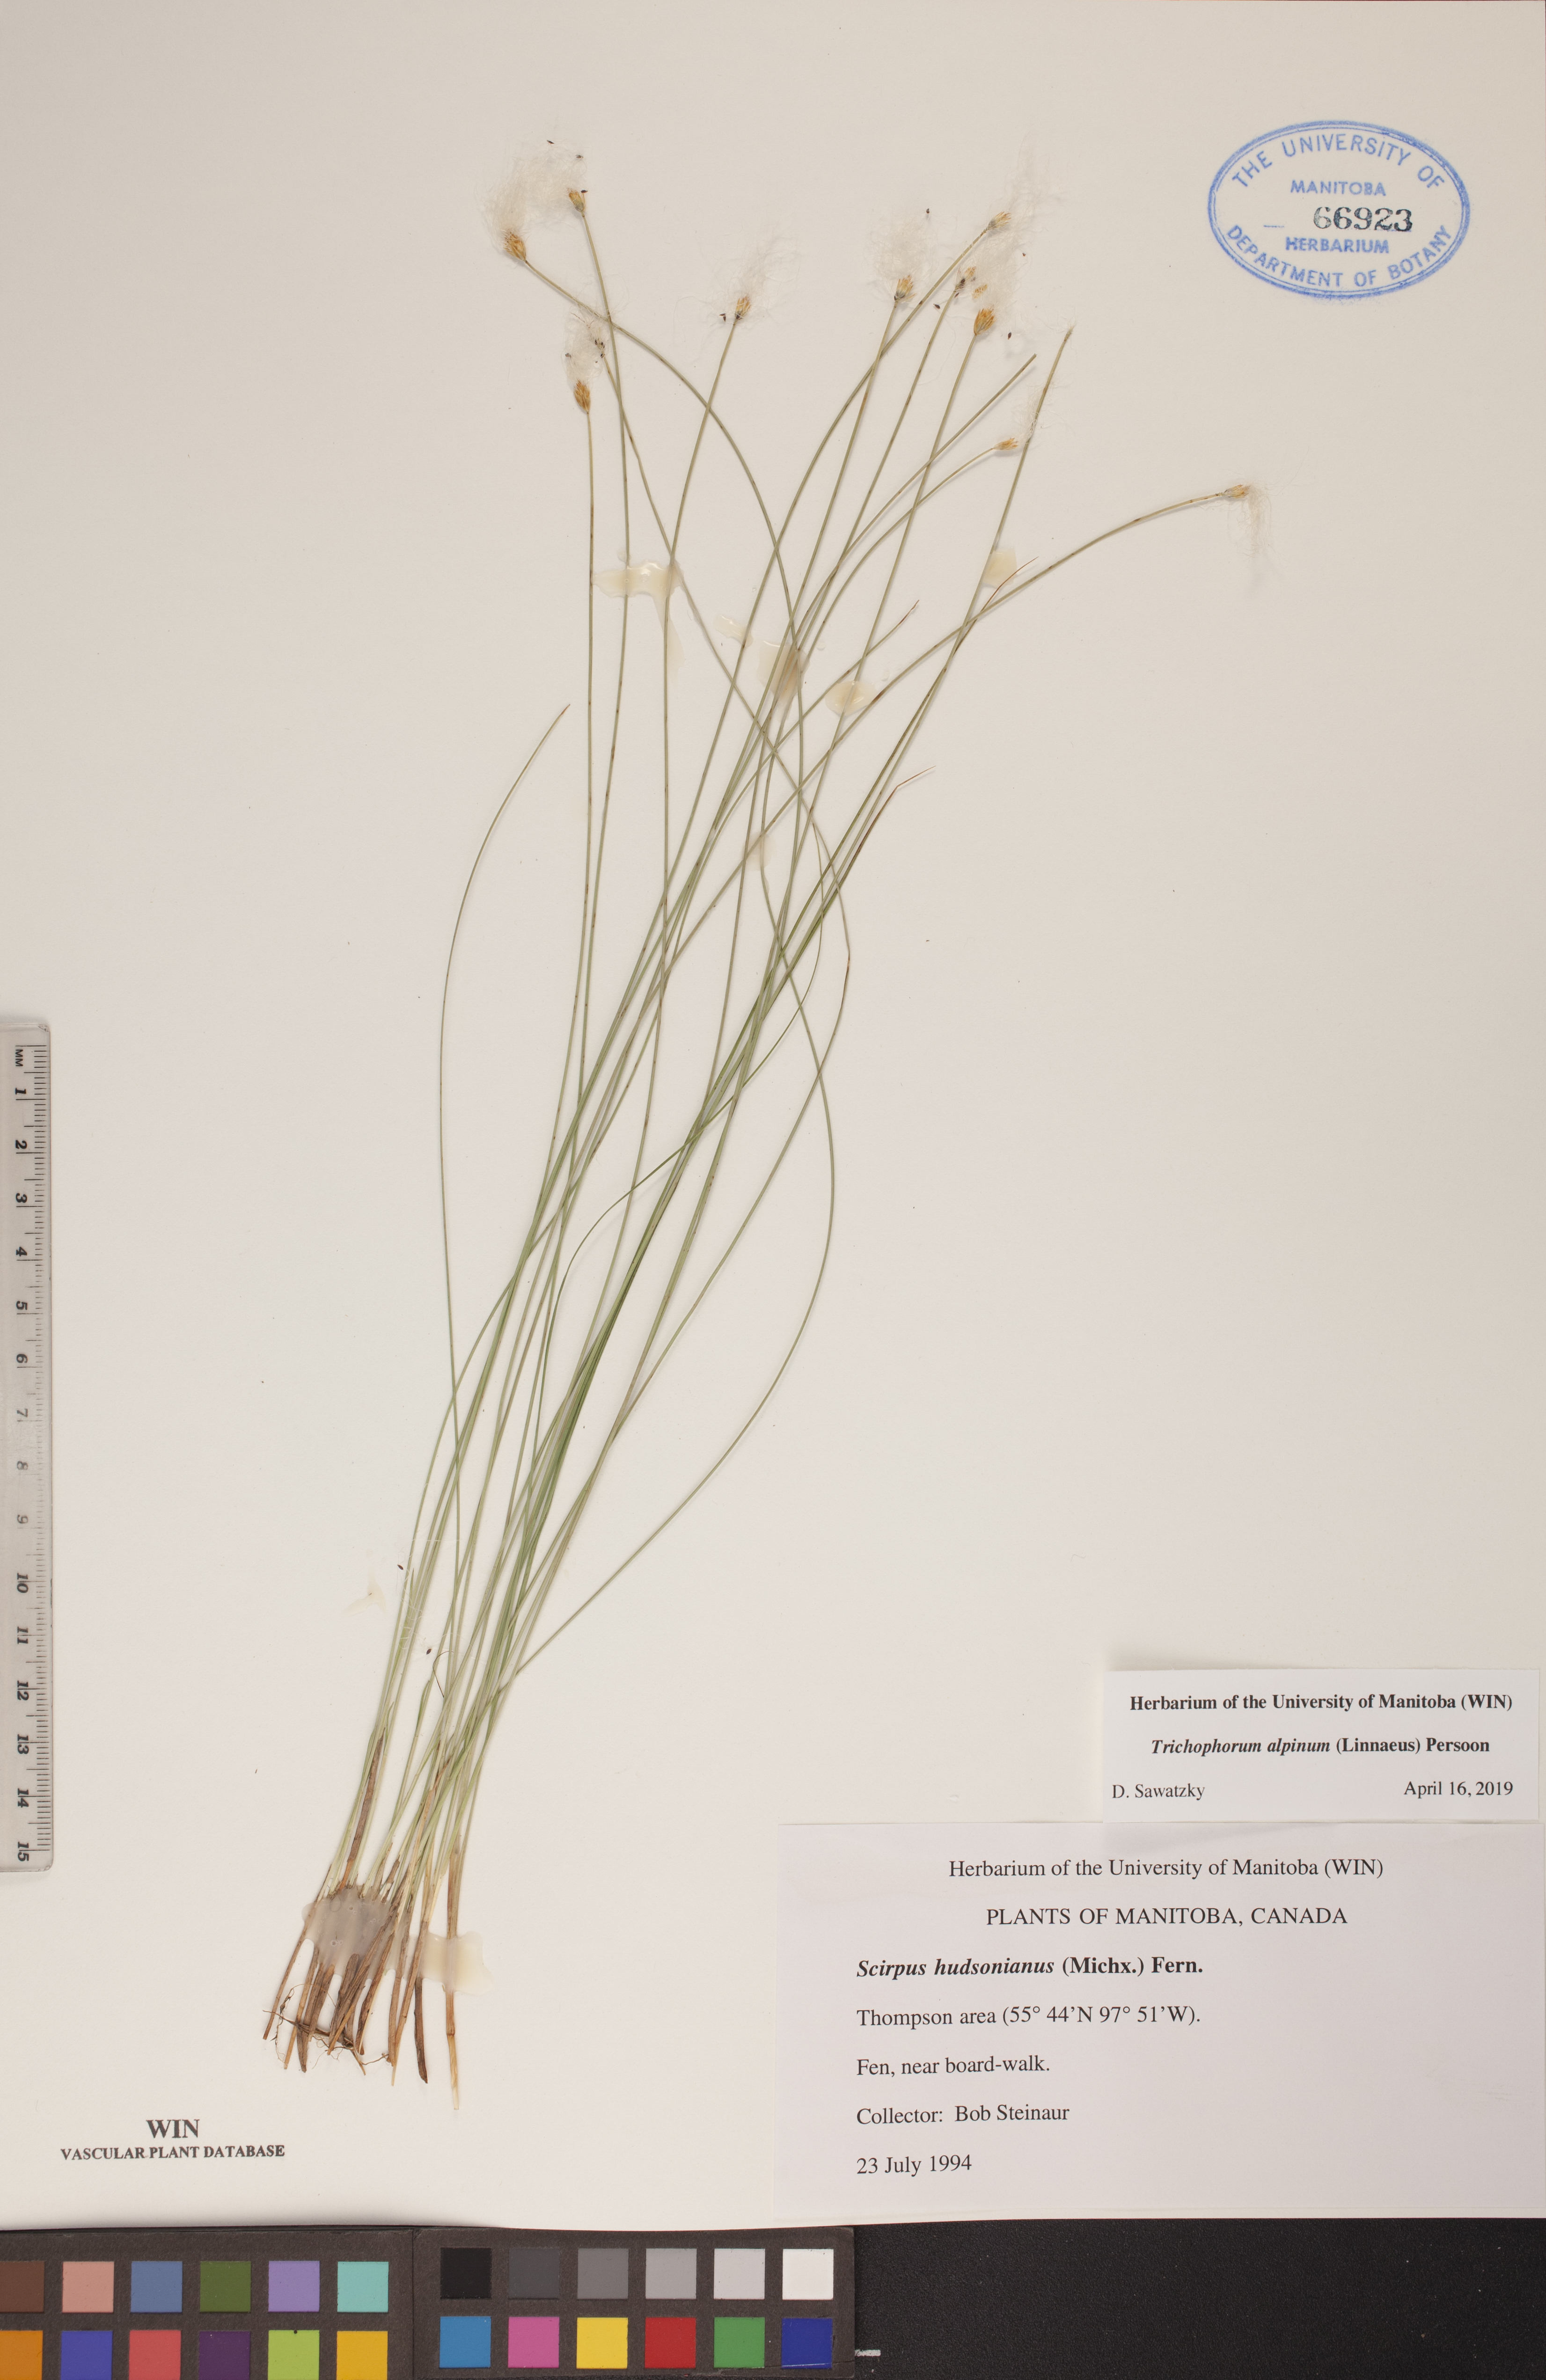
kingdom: Plantae
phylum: Tracheophyta
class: Liliopsida
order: Poales
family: Cyperaceae
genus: Trichophorum
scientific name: Trichophorum alpinum
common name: Alpine bulrush
